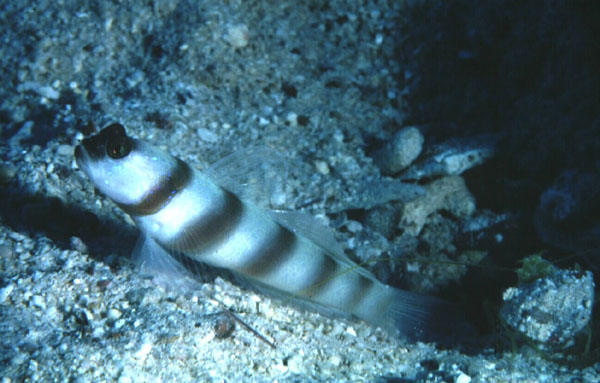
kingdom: Animalia
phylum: Chordata
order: Perciformes
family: Gobiidae
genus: Amblyeleotris
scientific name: Amblyeleotris steinitzi
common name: Steinitz' prawn-goby
